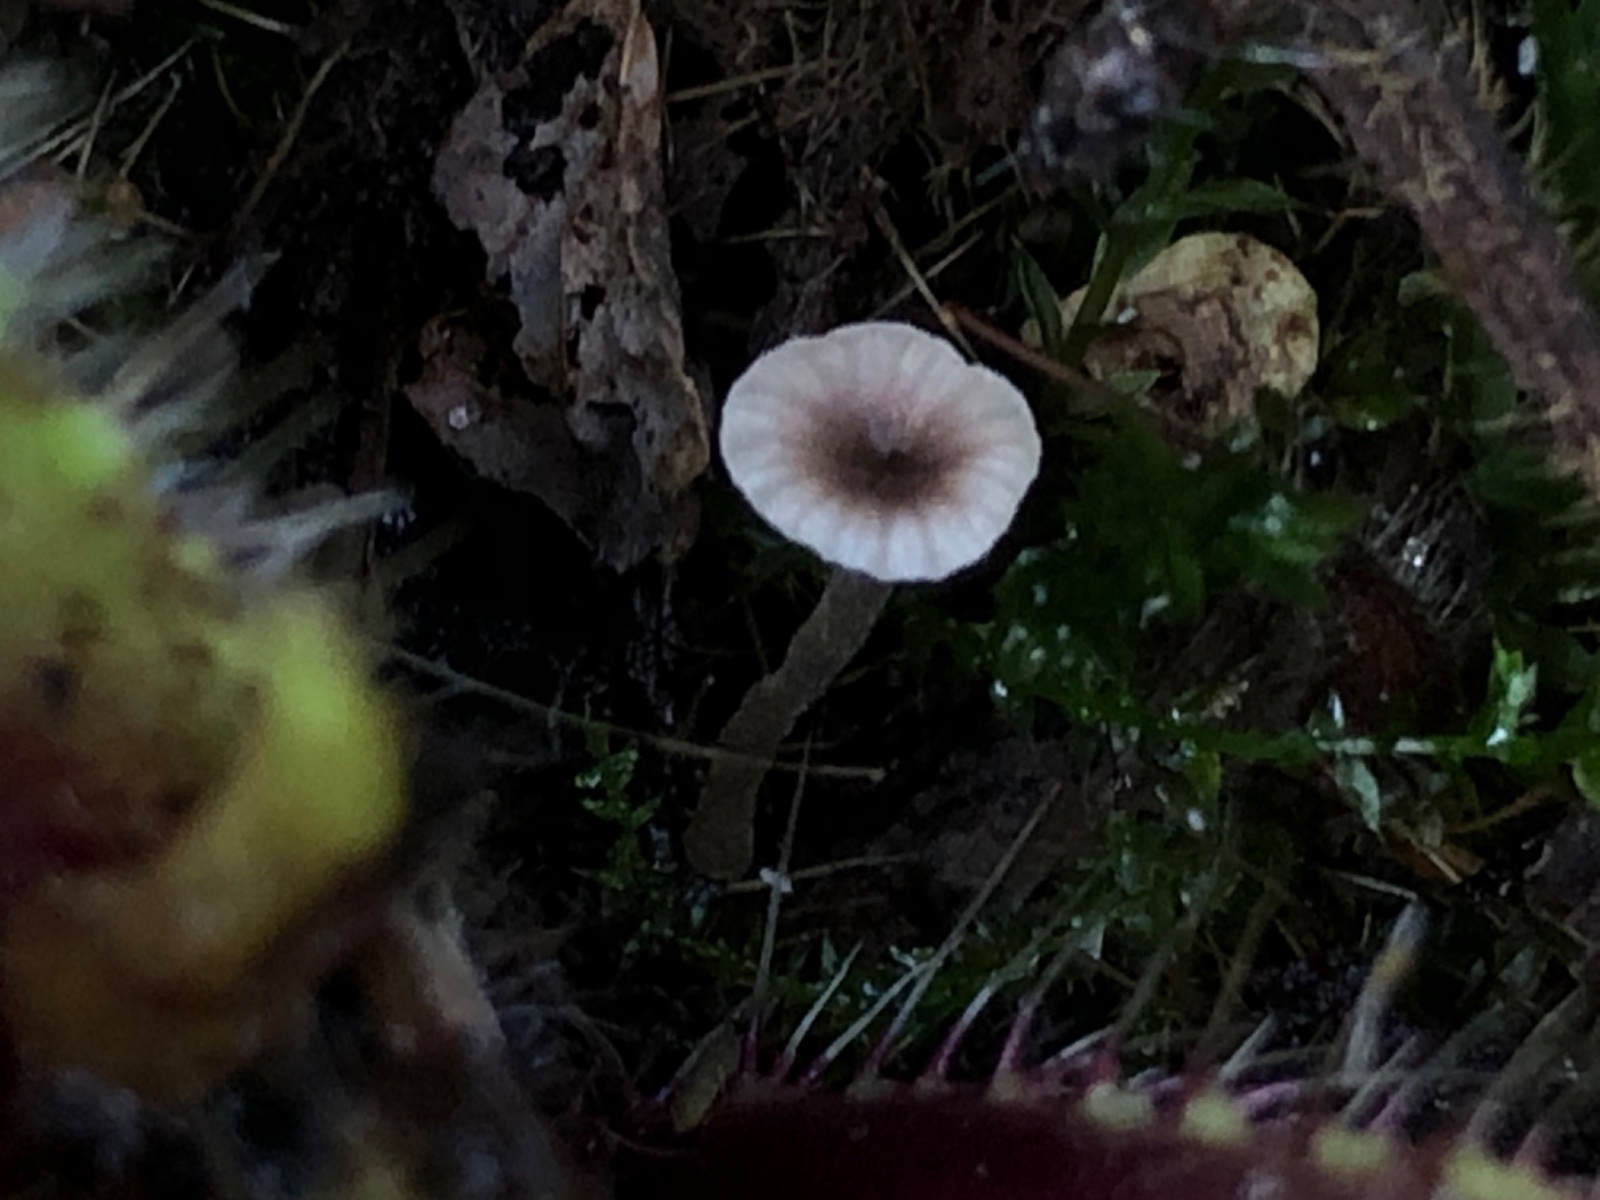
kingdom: Fungi
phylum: Basidiomycota
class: Agaricomycetes
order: Hymenochaetales
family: Rickenellaceae
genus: Rickenella
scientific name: Rickenella swartzii
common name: finstokket mosnavlehat
